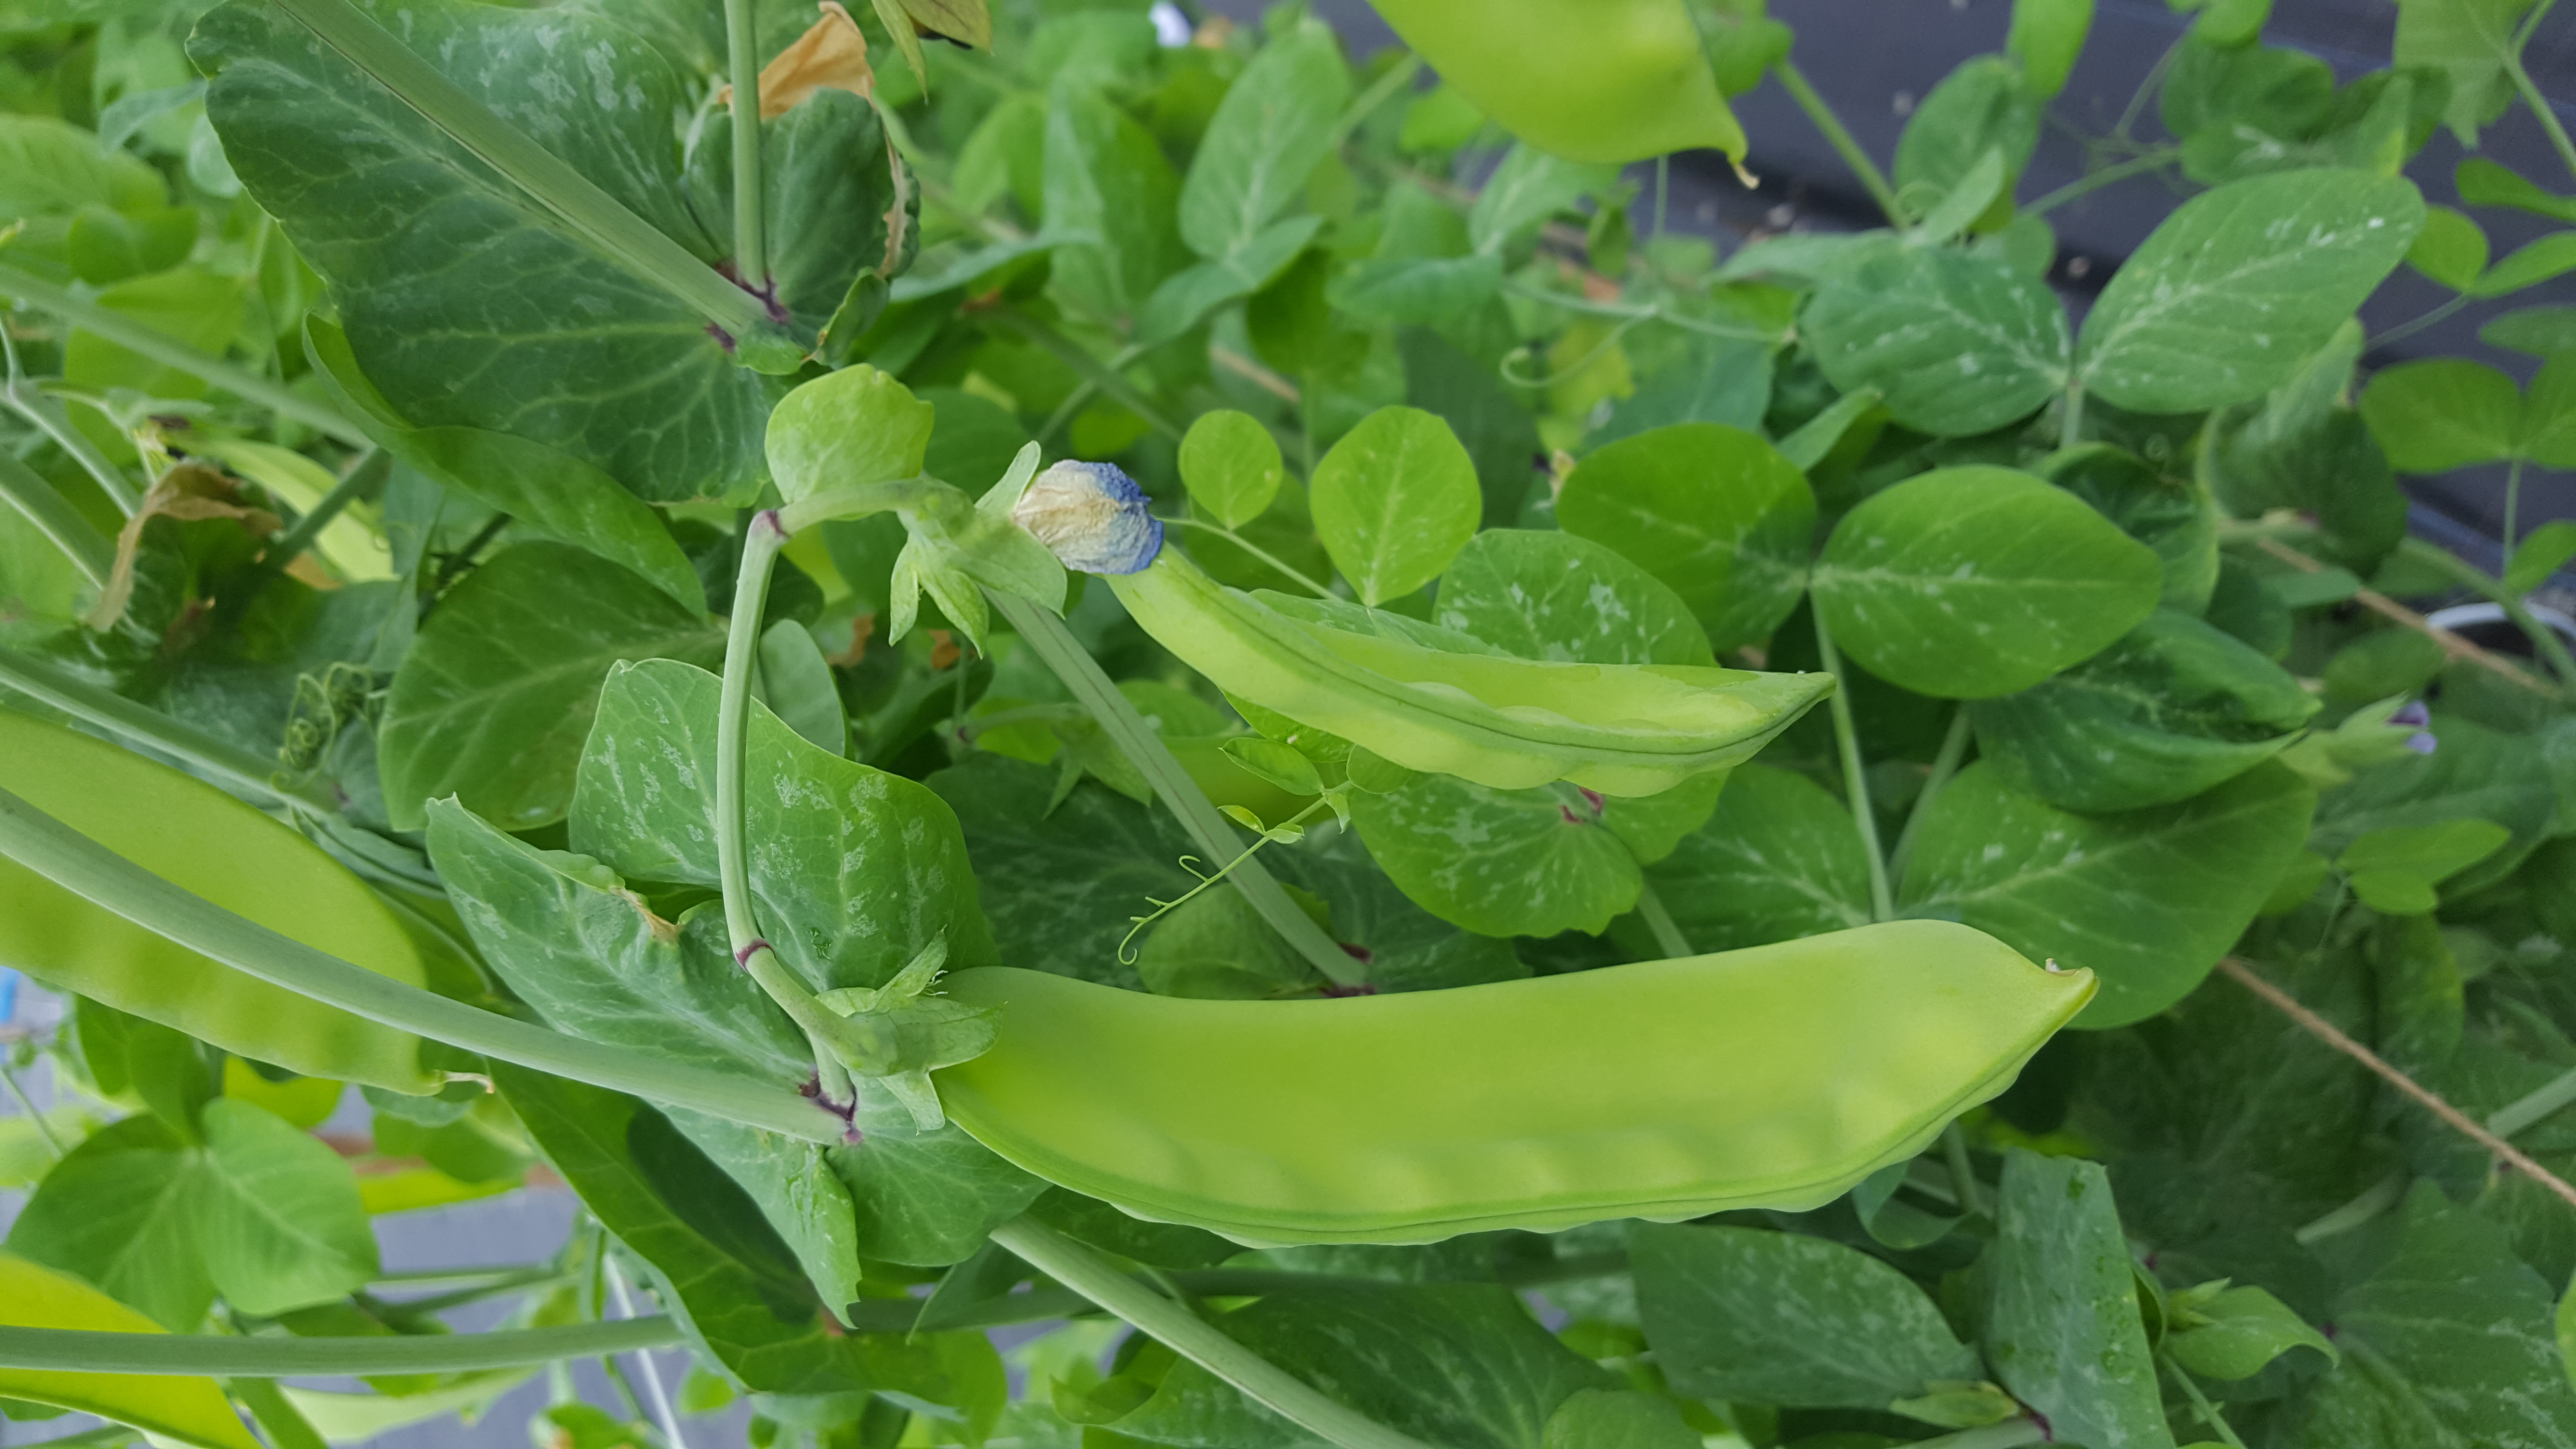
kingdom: Plantae
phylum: Tracheophyta
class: Magnoliopsida
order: Fabales
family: Fabaceae
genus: Lathyrus
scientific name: Lathyrus oleraceus
